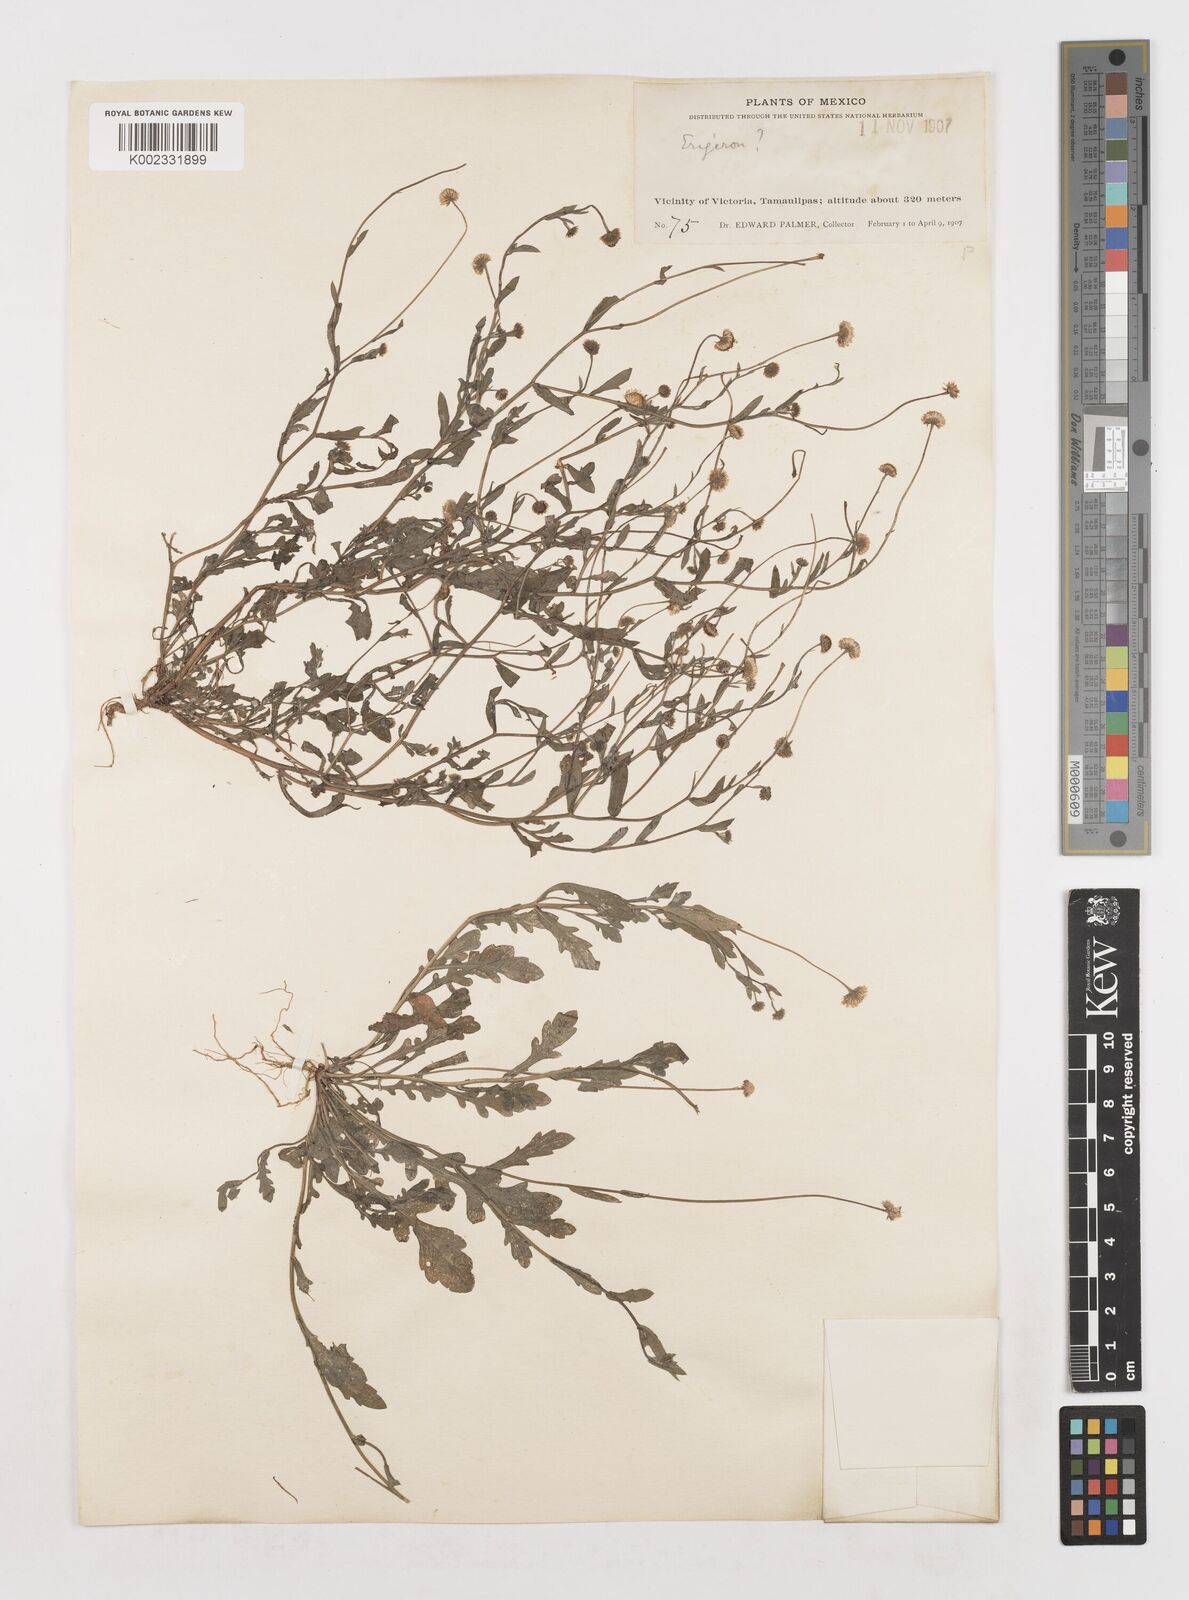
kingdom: Plantae
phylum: Tracheophyta
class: Magnoliopsida
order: Asterales
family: Asteraceae
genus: Erigeron
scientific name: Erigeron
